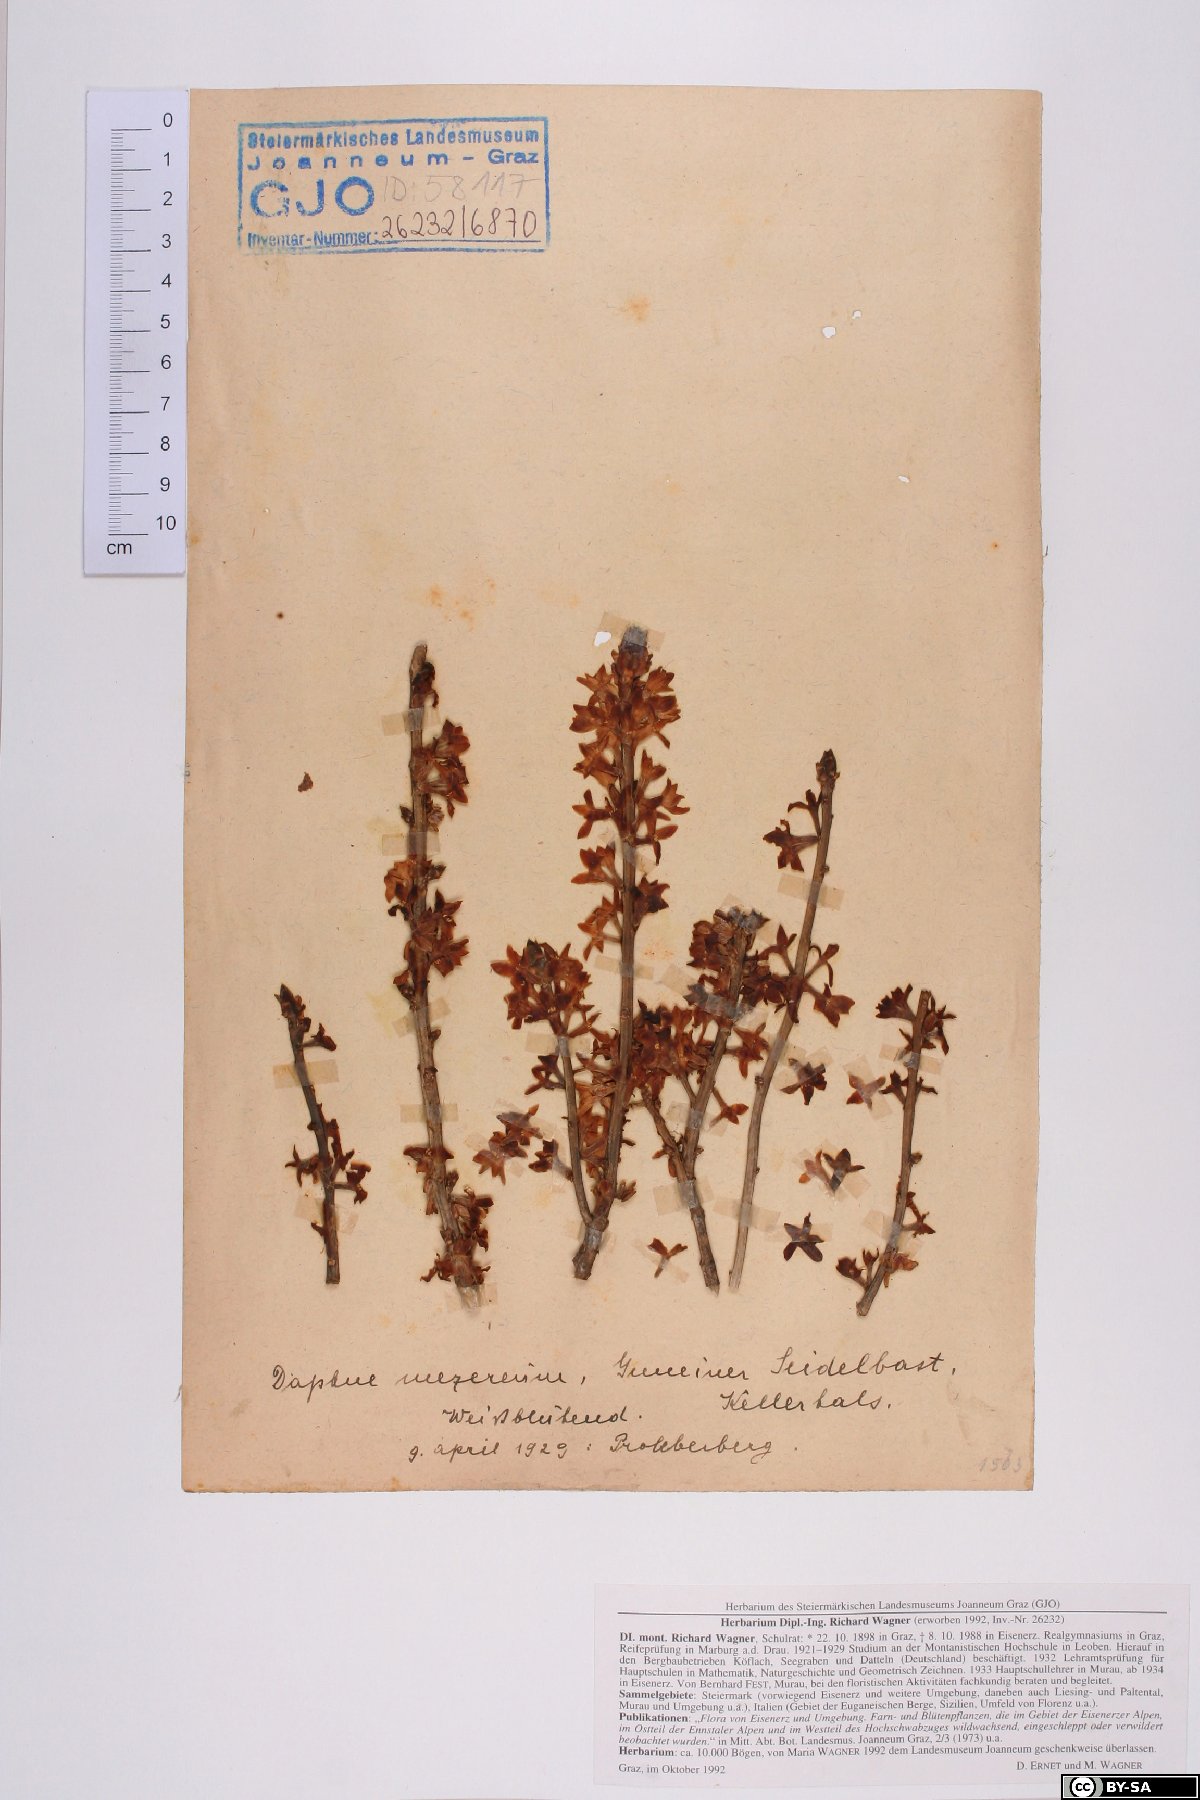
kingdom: Plantae
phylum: Tracheophyta
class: Magnoliopsida
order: Malvales
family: Thymelaeaceae
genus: Daphne
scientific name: Daphne mezereum
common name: Mezereon
